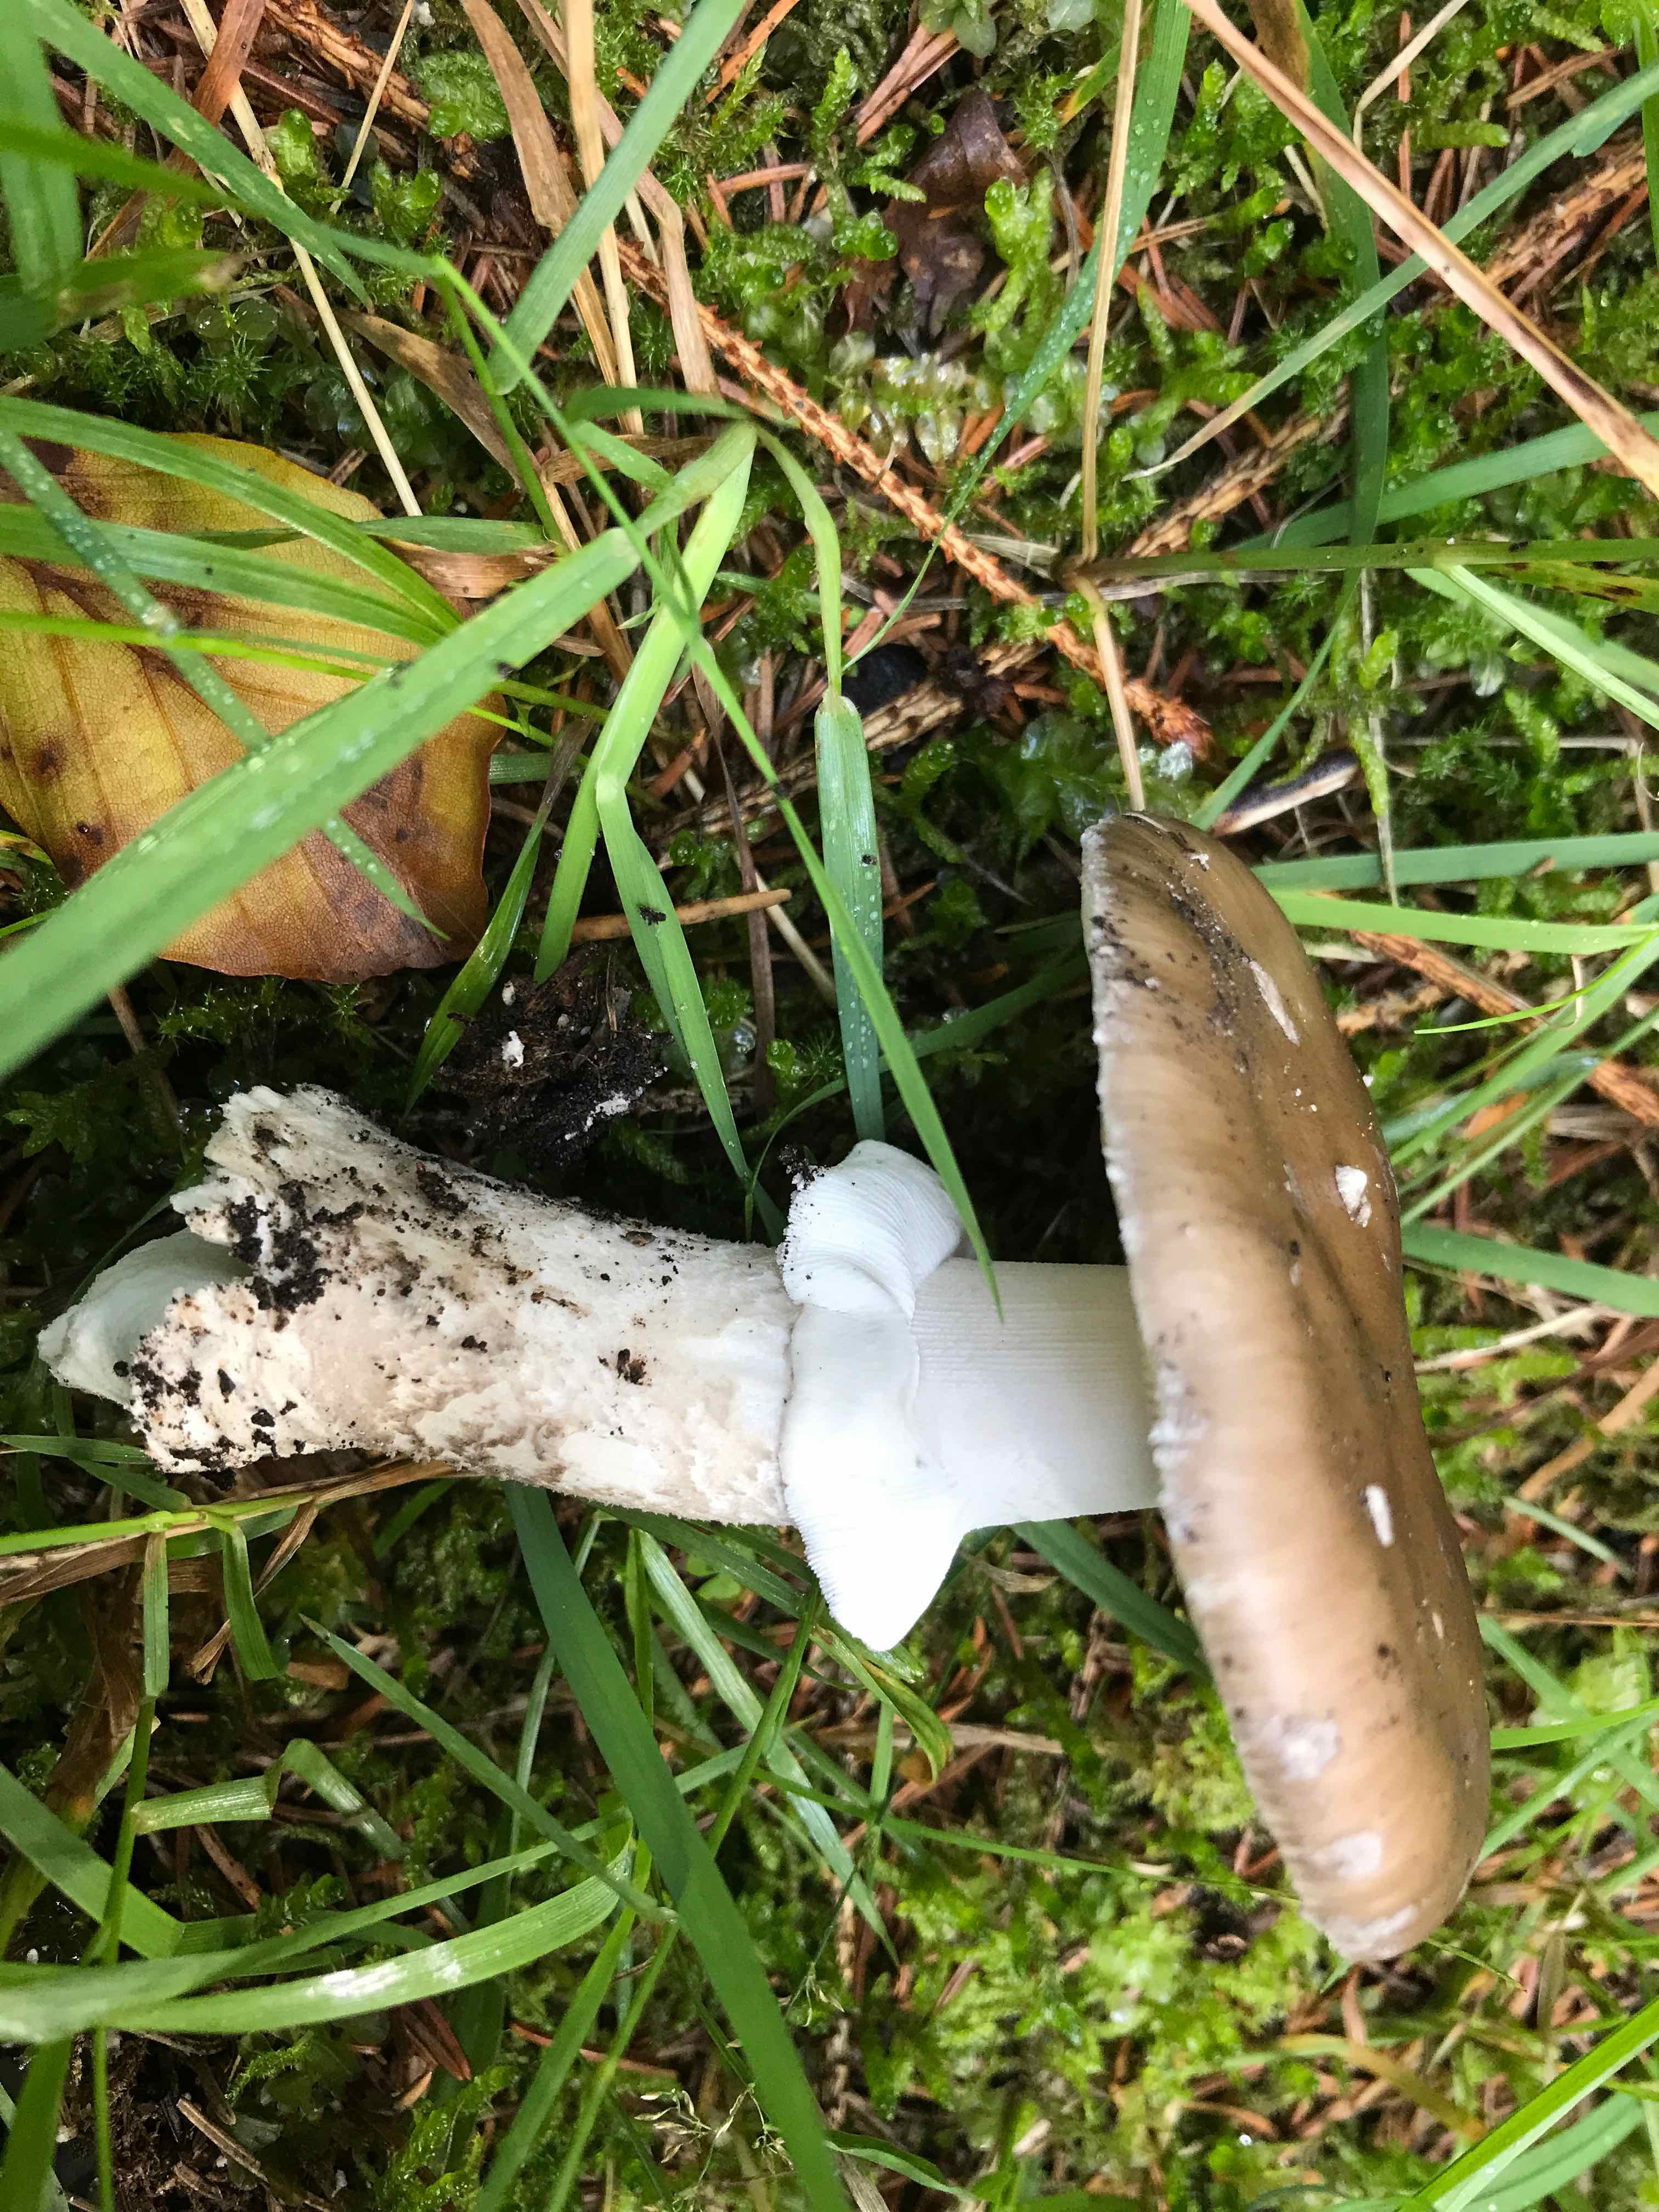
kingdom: Fungi
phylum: Basidiomycota
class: Agaricomycetes
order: Agaricales
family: Amanitaceae
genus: Amanita
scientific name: Amanita
